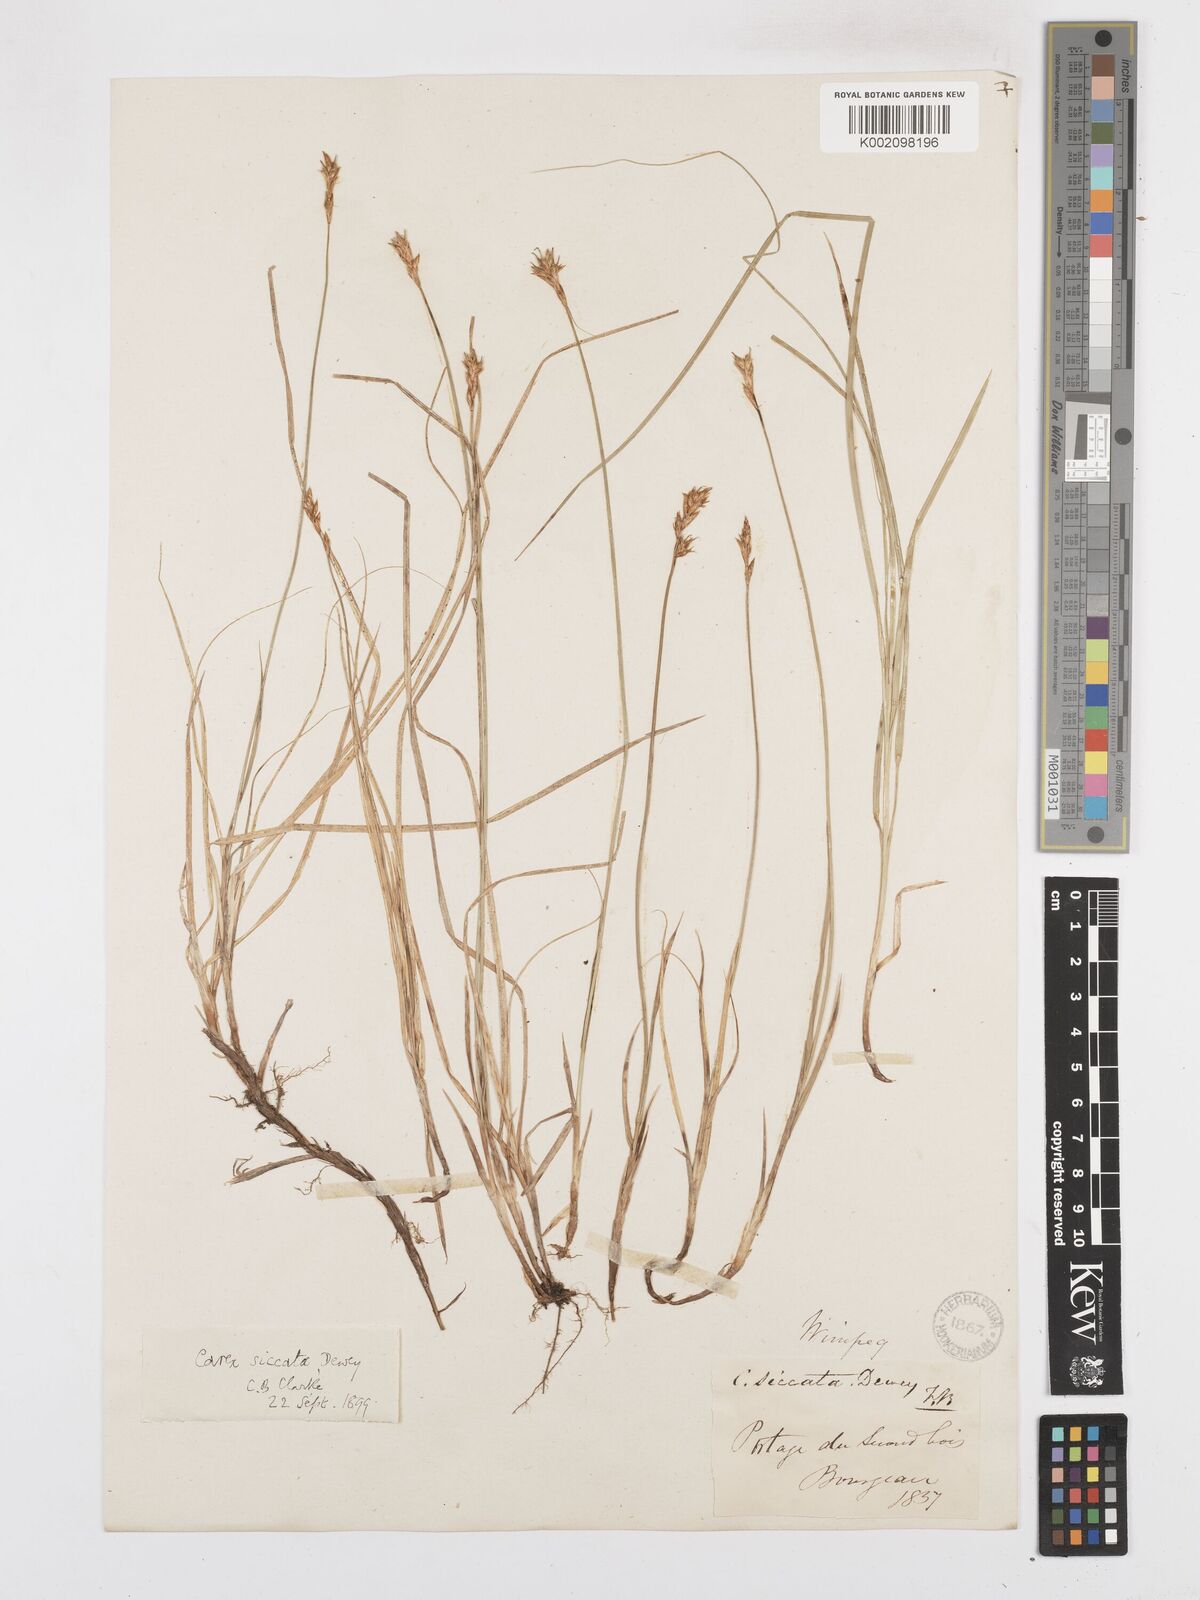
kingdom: Plantae
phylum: Tracheophyta
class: Liliopsida
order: Poales
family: Cyperaceae
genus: Carex
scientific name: Carex foenea
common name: Bronze sedge
